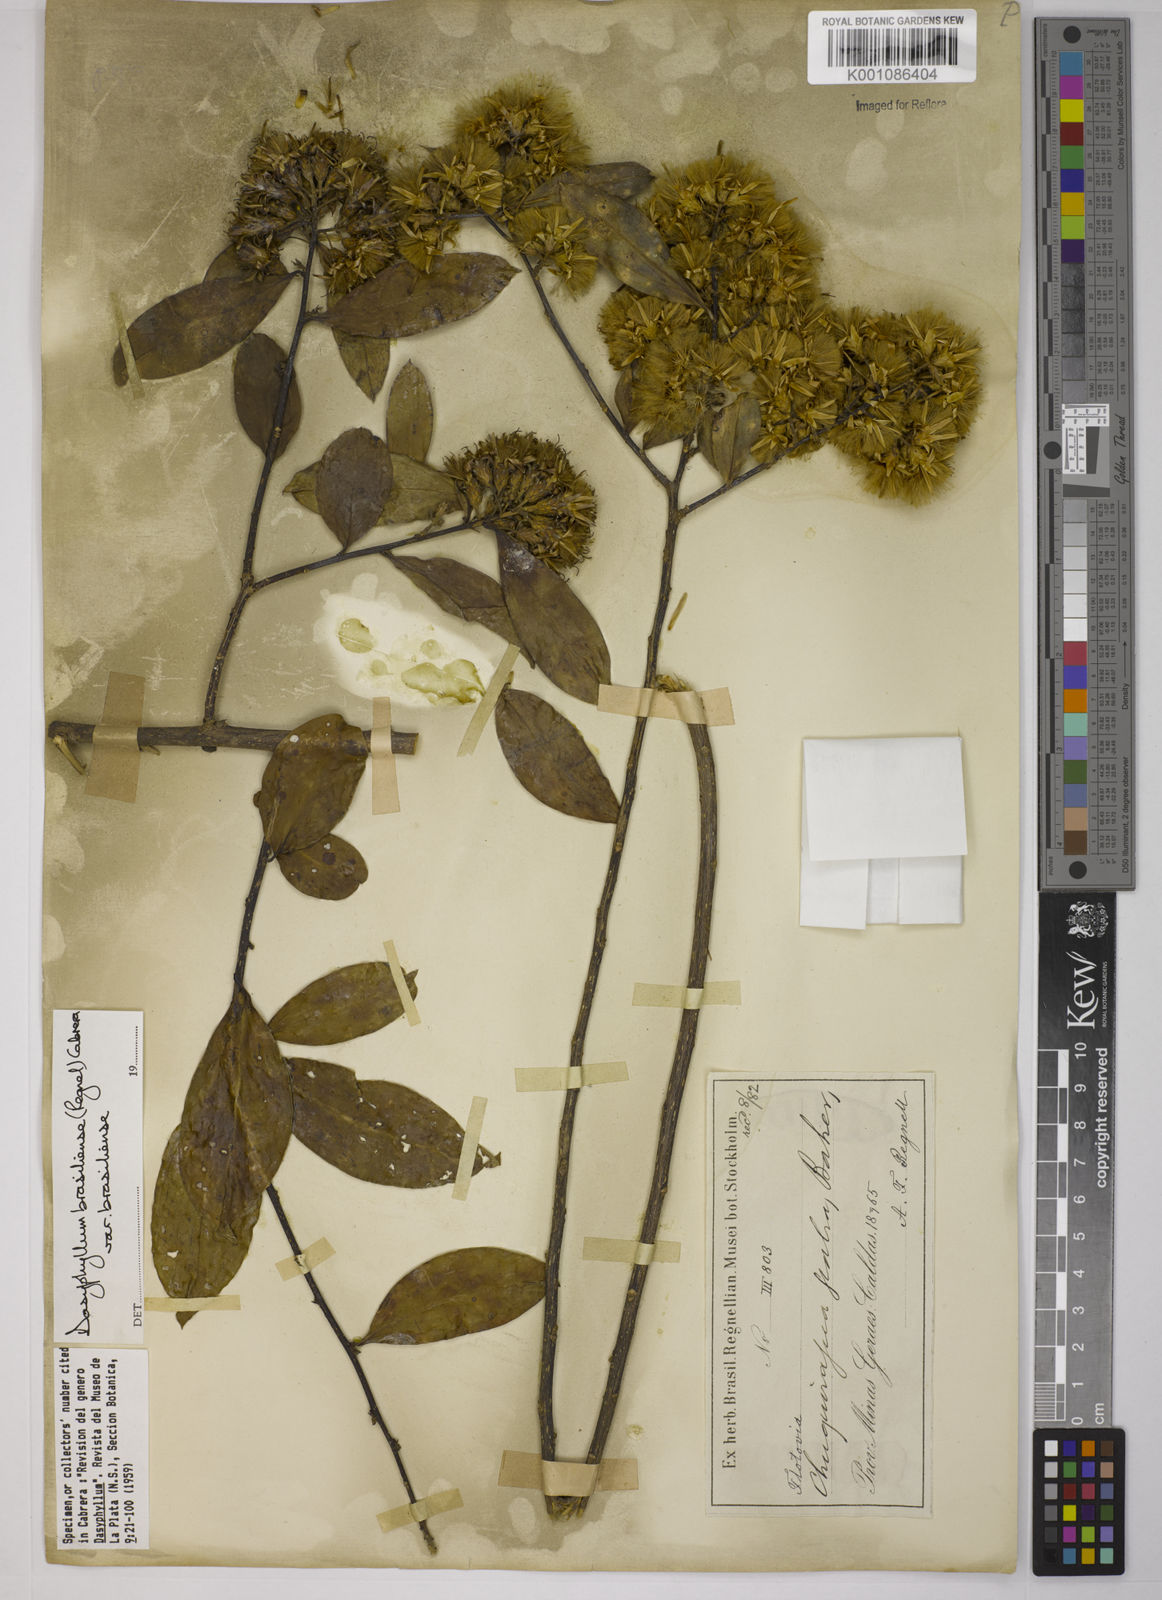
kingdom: Plantae
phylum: Tracheophyta
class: Magnoliopsida
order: Asterales
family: Asteraceae
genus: Dasyphyllum
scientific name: Dasyphyllum brasiliense
